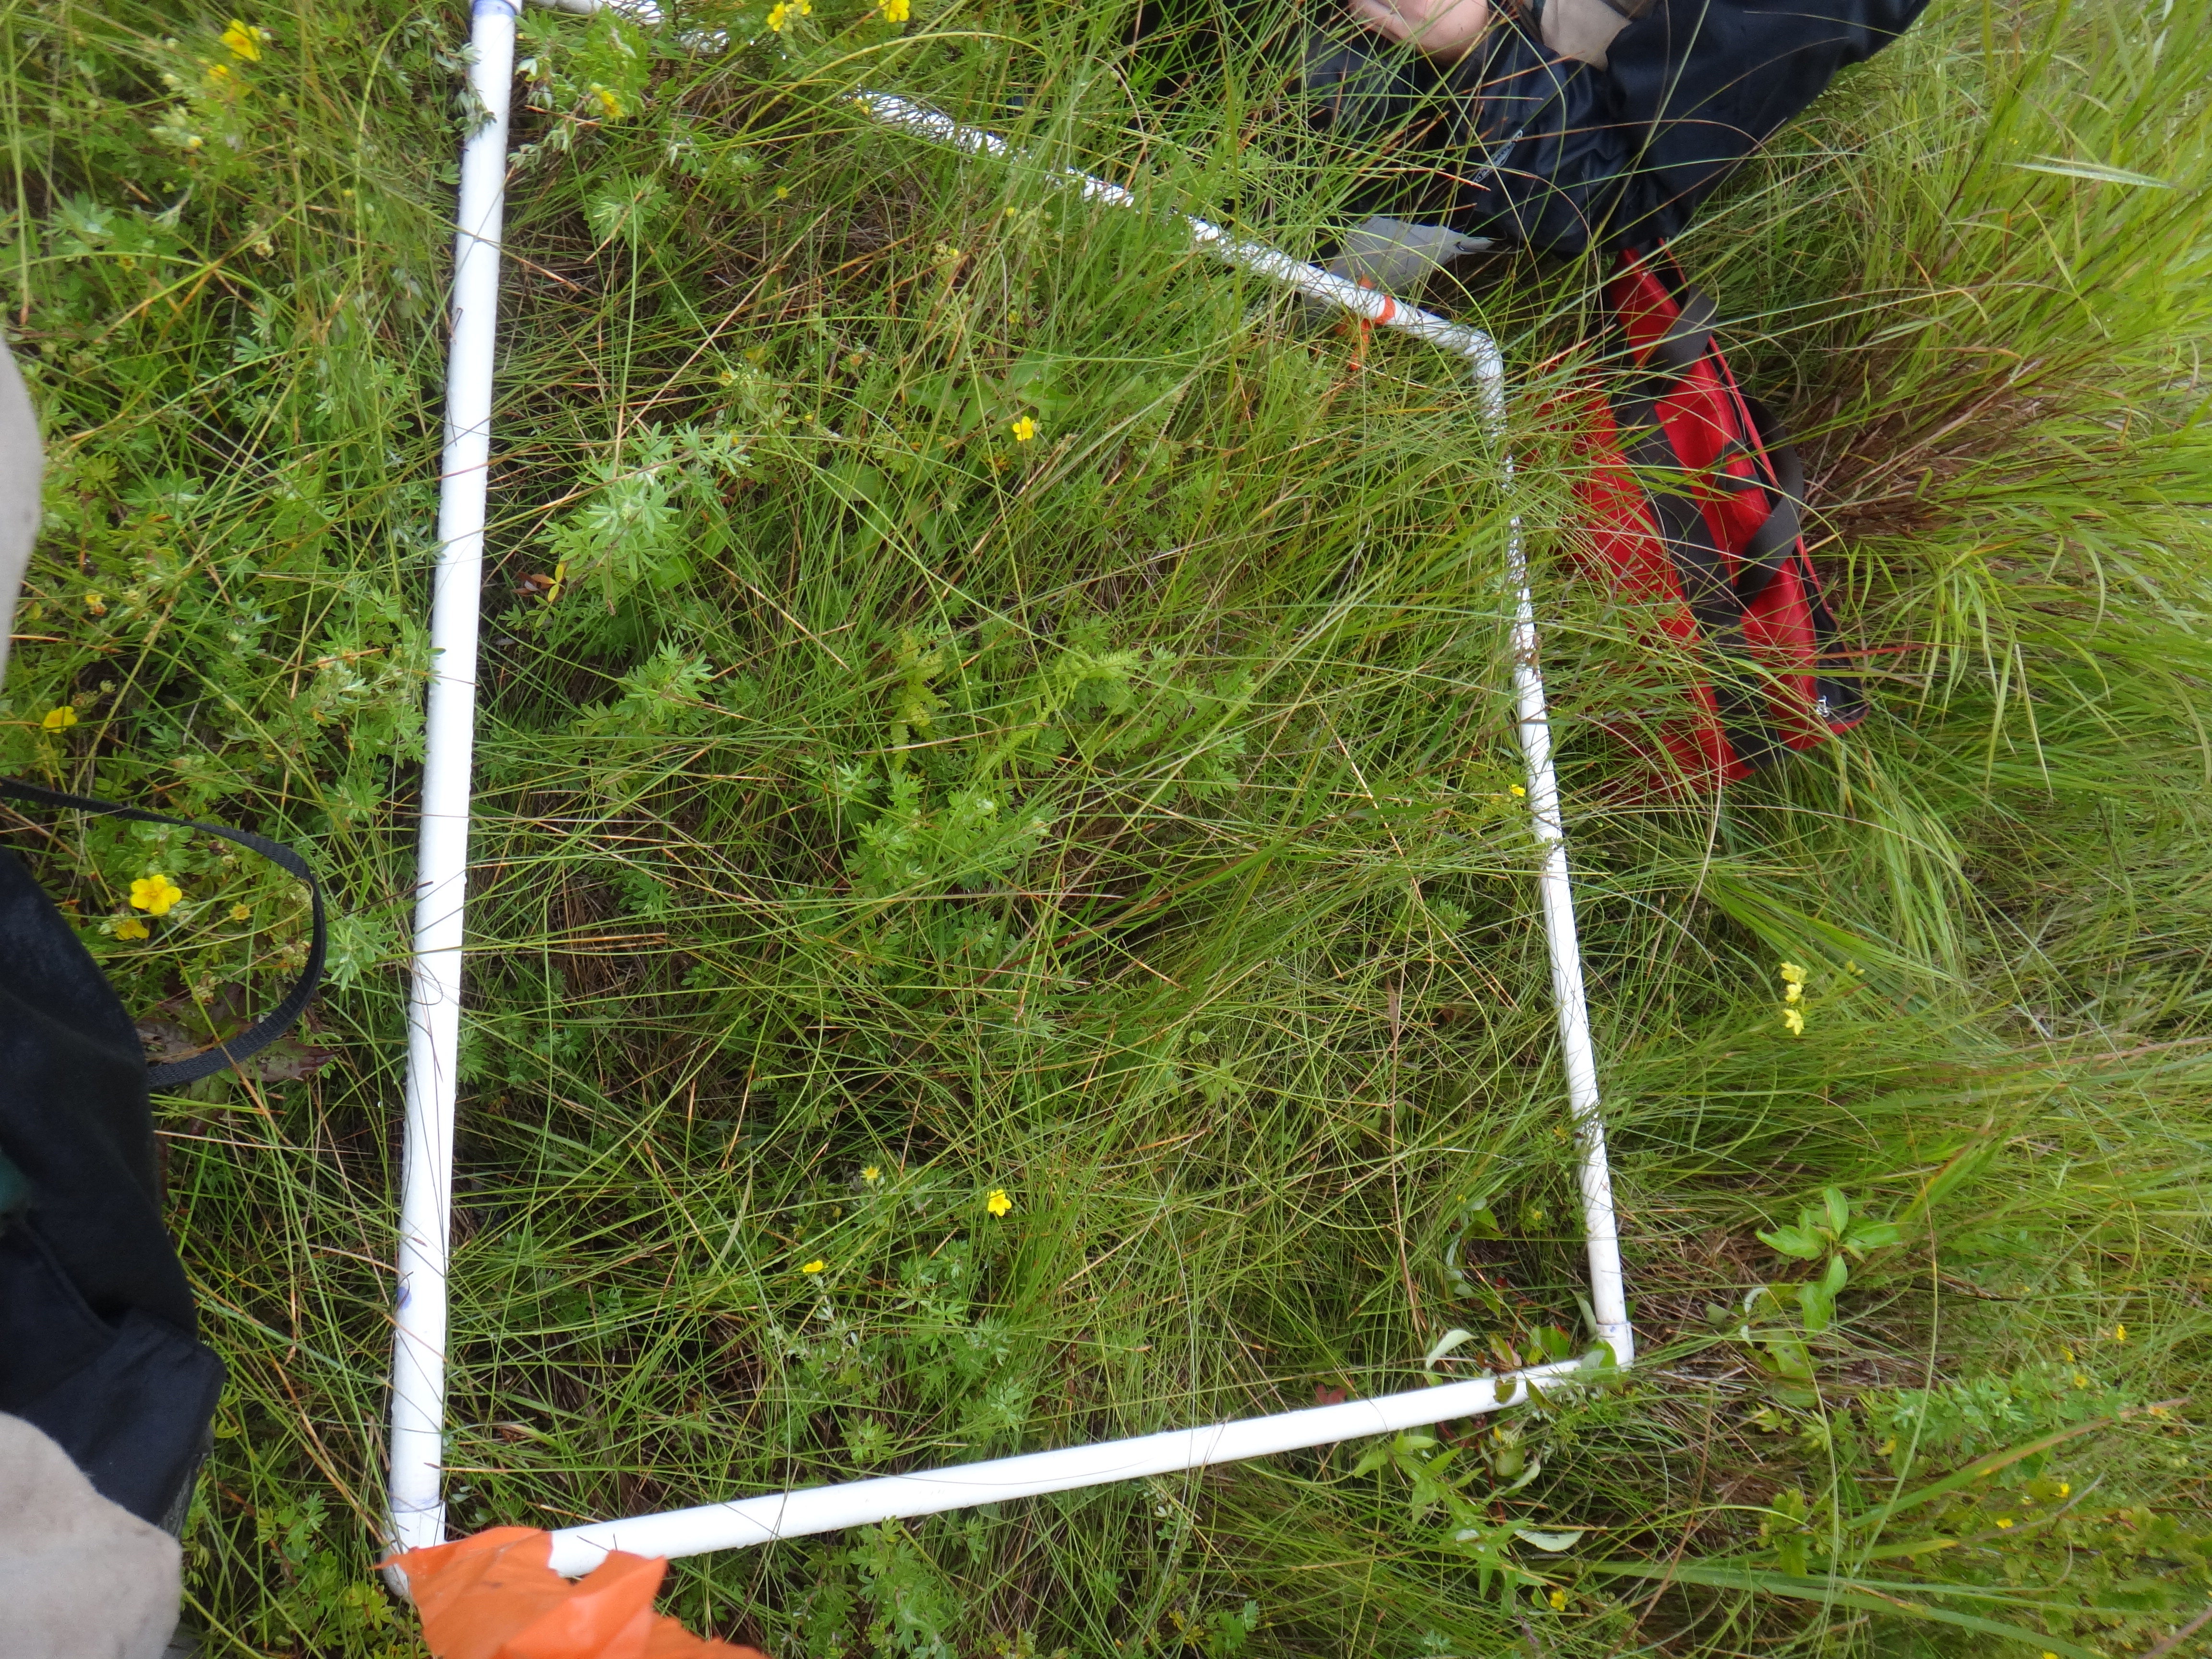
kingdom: Plantae
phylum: Tracheophyta
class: Magnoliopsida
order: Cornales
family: Cornaceae
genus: Cornus
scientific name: Cornus sericea
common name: Red-osier dogwood
